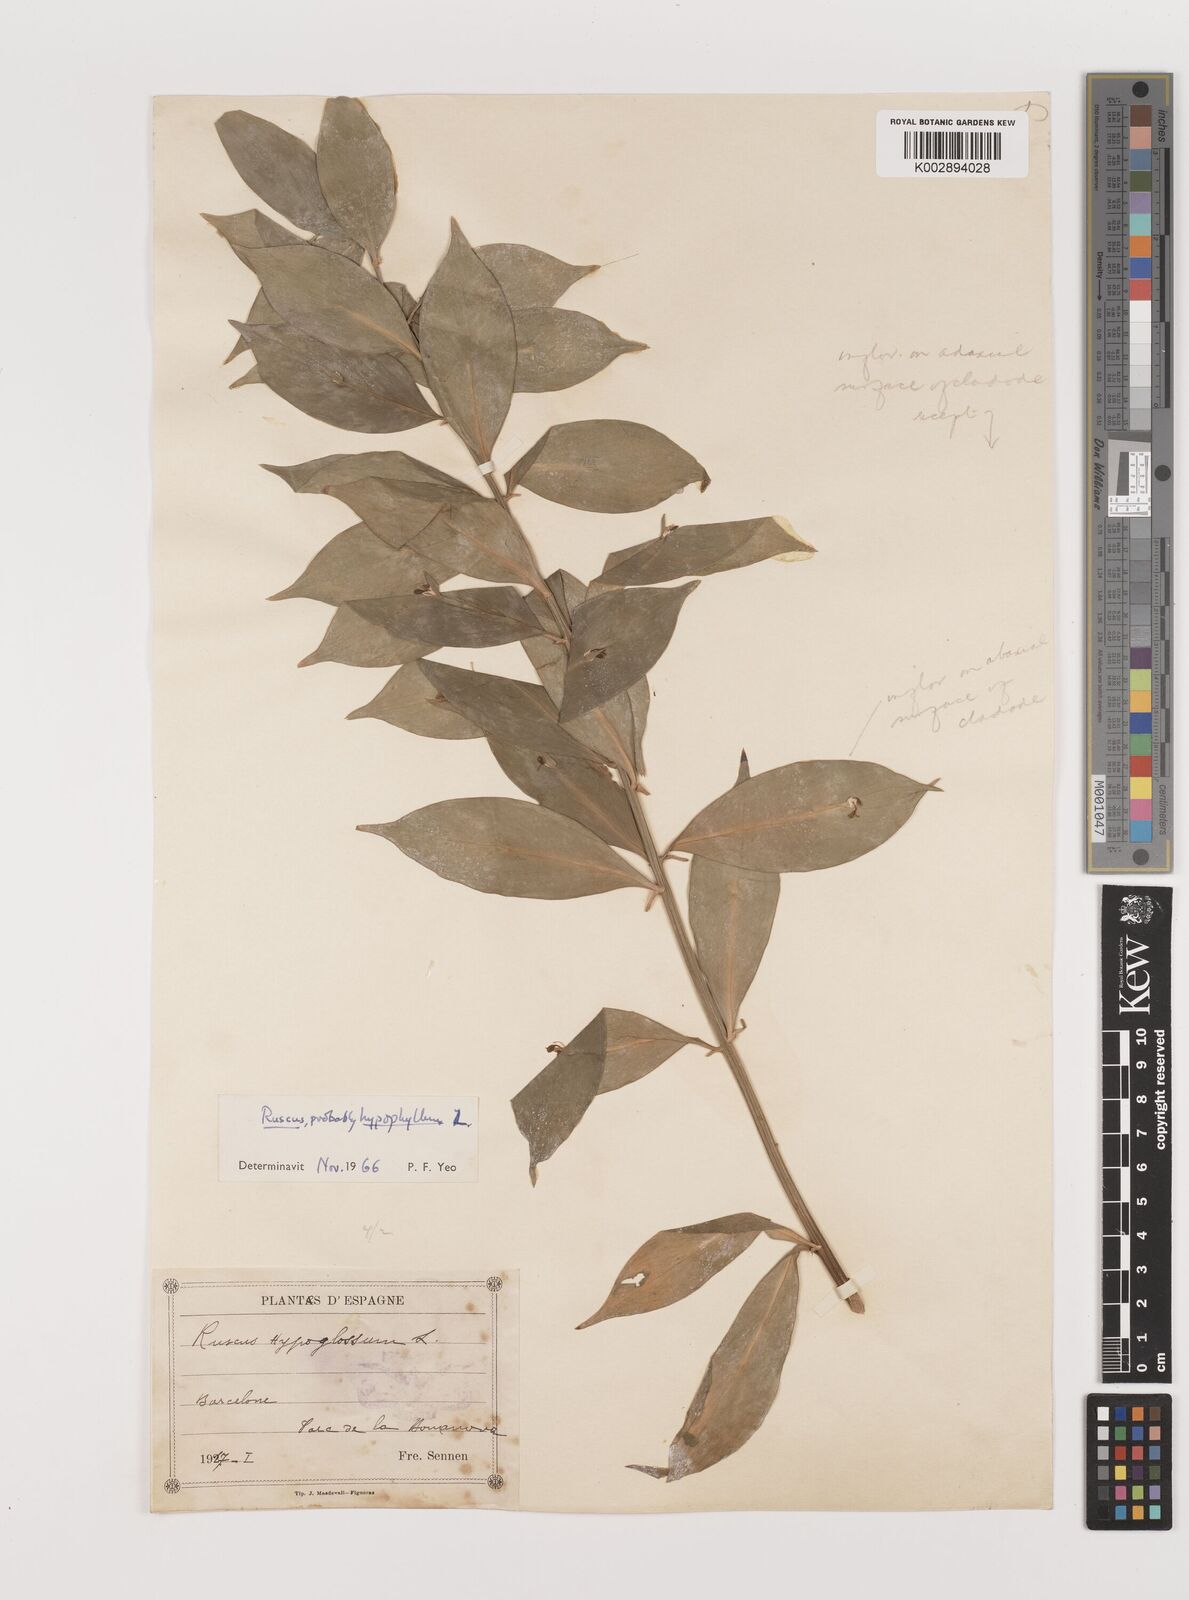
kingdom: Plantae
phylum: Tracheophyta
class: Liliopsida
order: Asparagales
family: Asparagaceae
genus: Ruscus
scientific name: Ruscus hypophyllum
